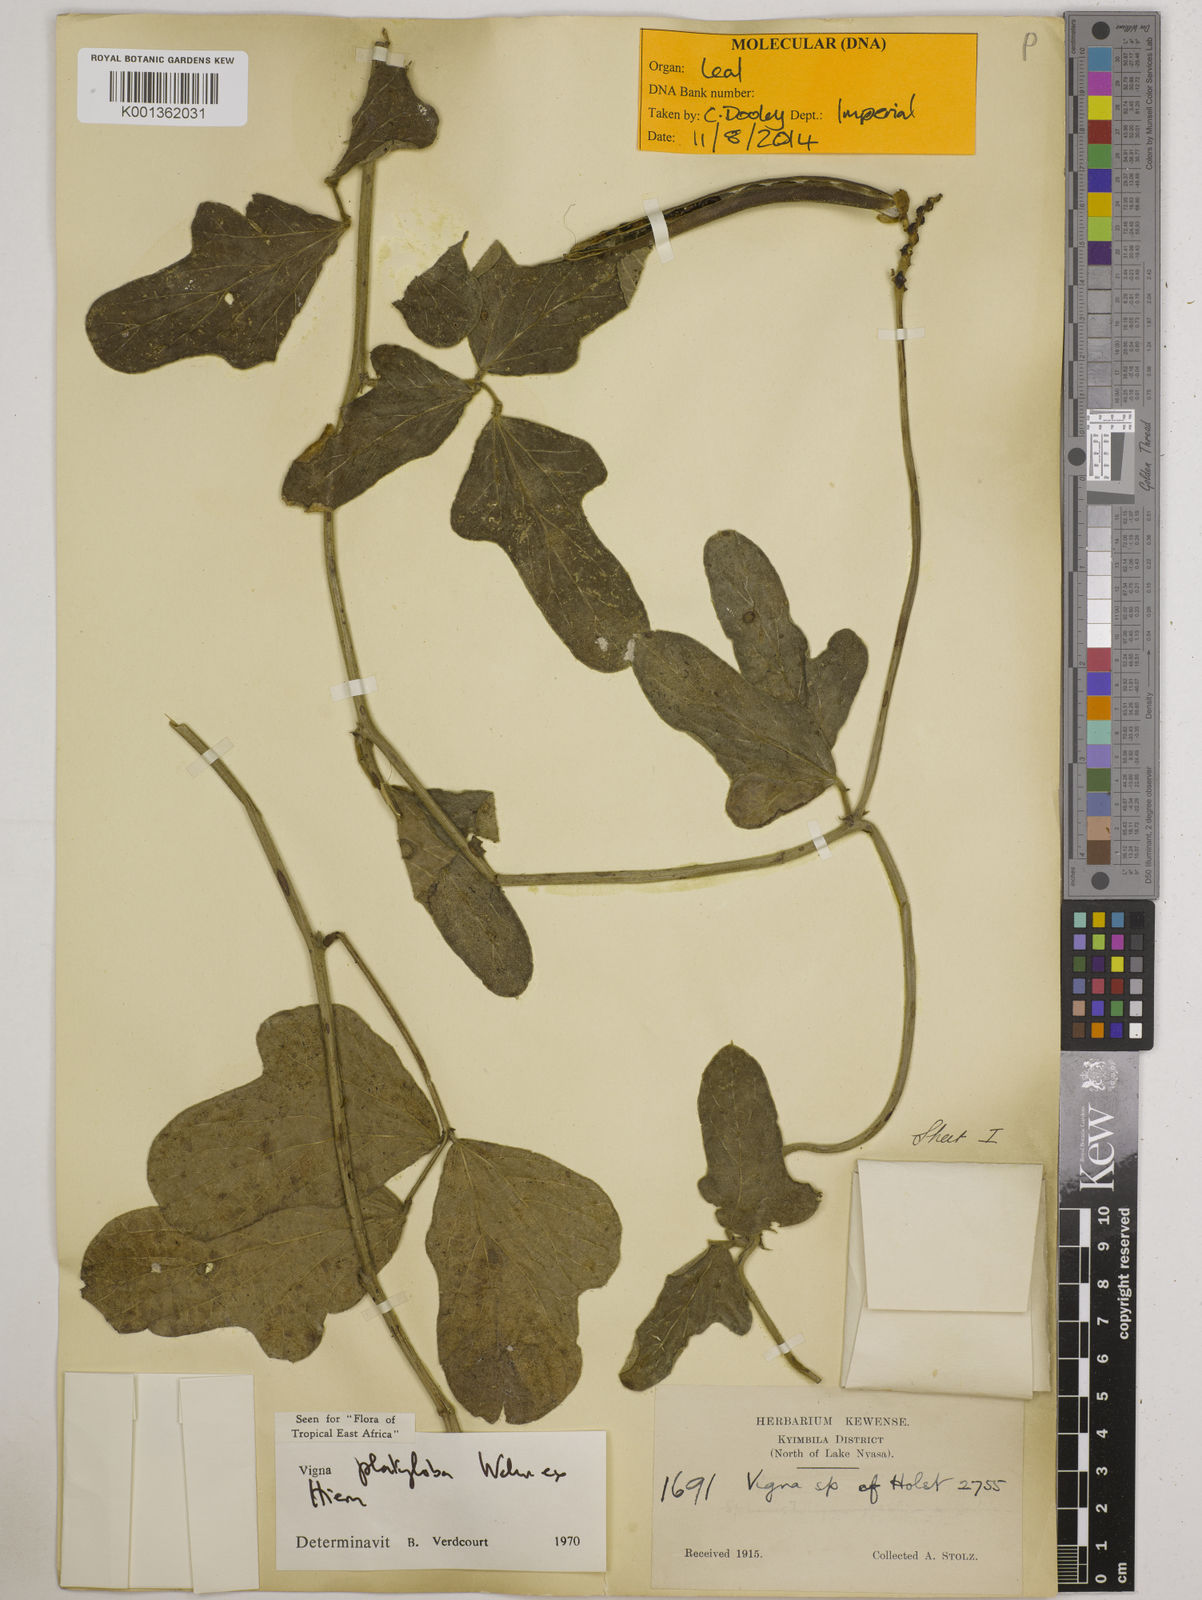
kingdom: Plantae
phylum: Tracheophyta
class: Magnoliopsida
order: Fabales
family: Fabaceae
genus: Vigna
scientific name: Vigna platyloba
